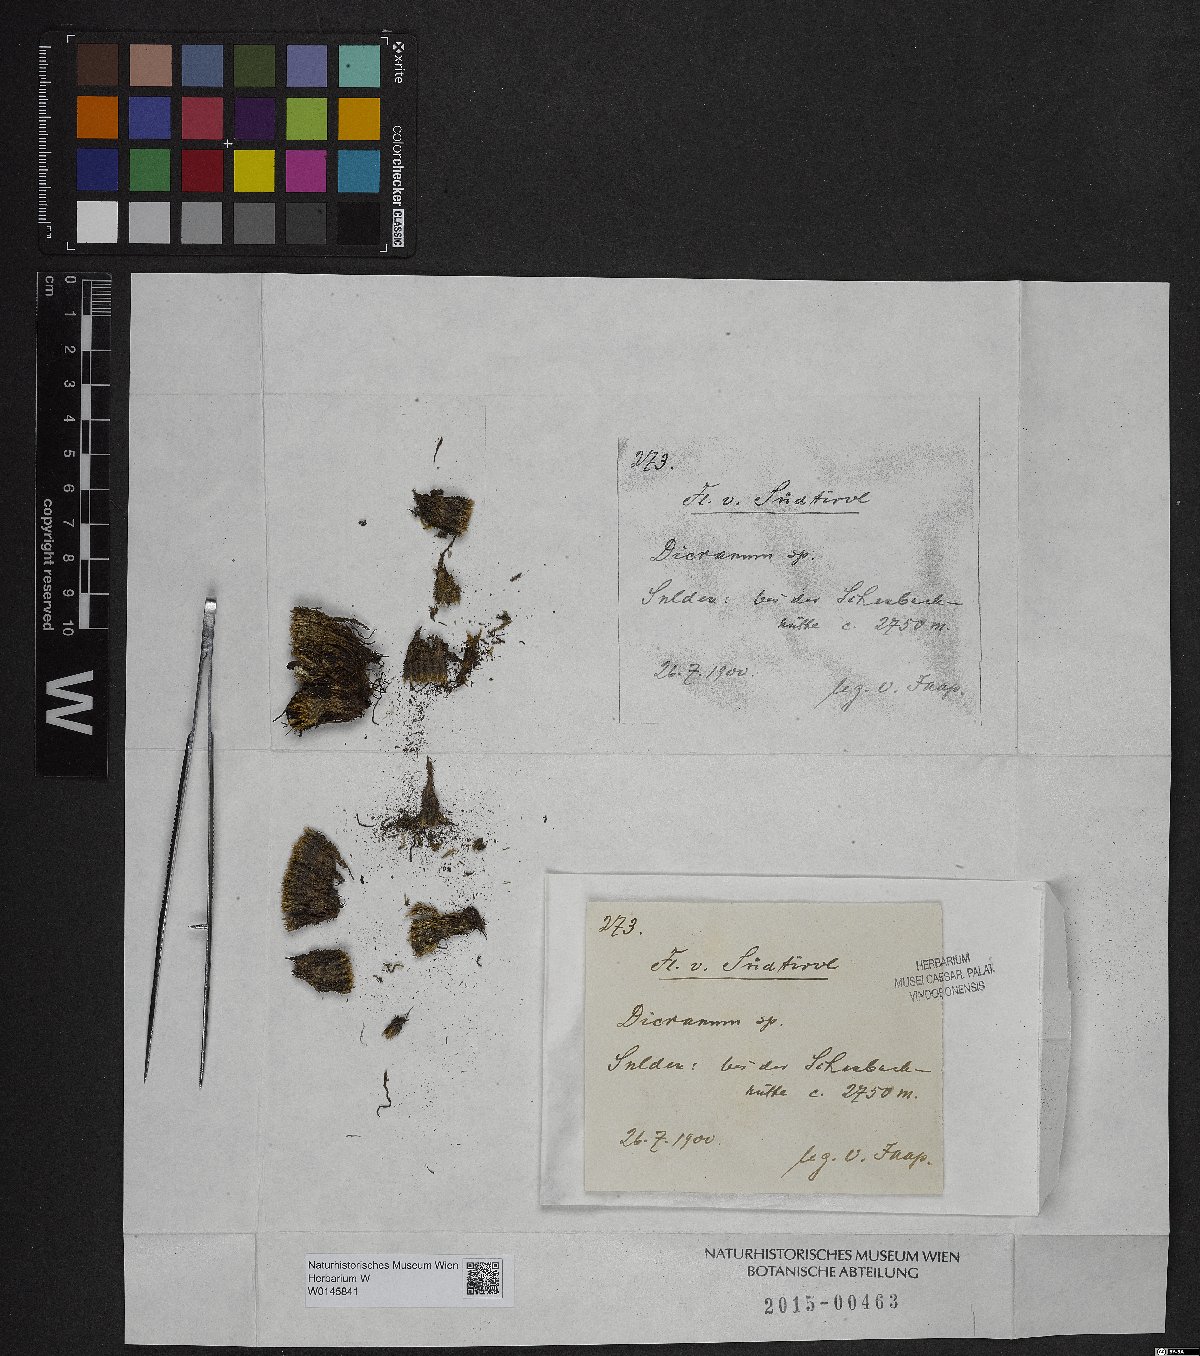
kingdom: Plantae
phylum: Bryophyta
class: Bryopsida
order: Dicranales
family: Dicranaceae
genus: Dicranum
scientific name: Dicranum
